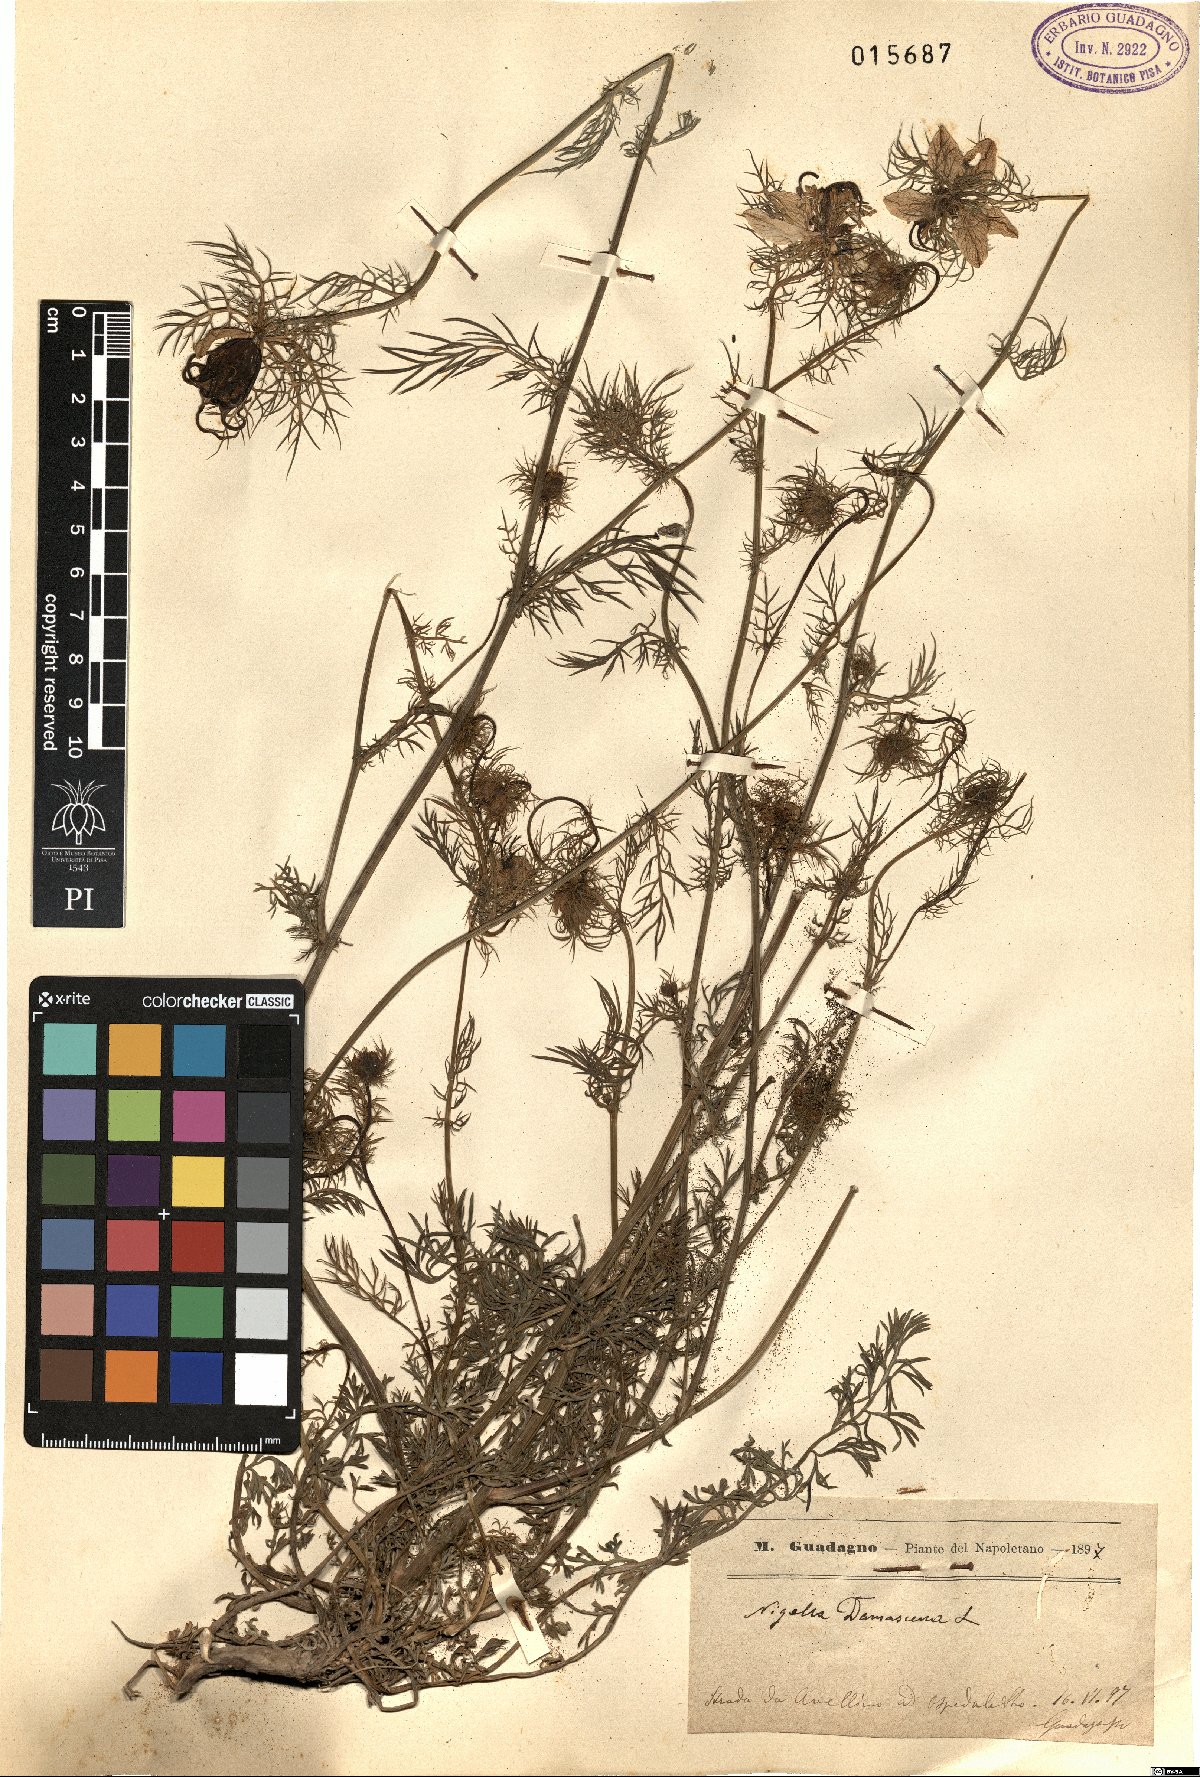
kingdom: Plantae
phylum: Tracheophyta
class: Magnoliopsida
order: Ranunculales
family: Ranunculaceae
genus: Nigella
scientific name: Nigella damascena
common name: Love-in-a-mist
